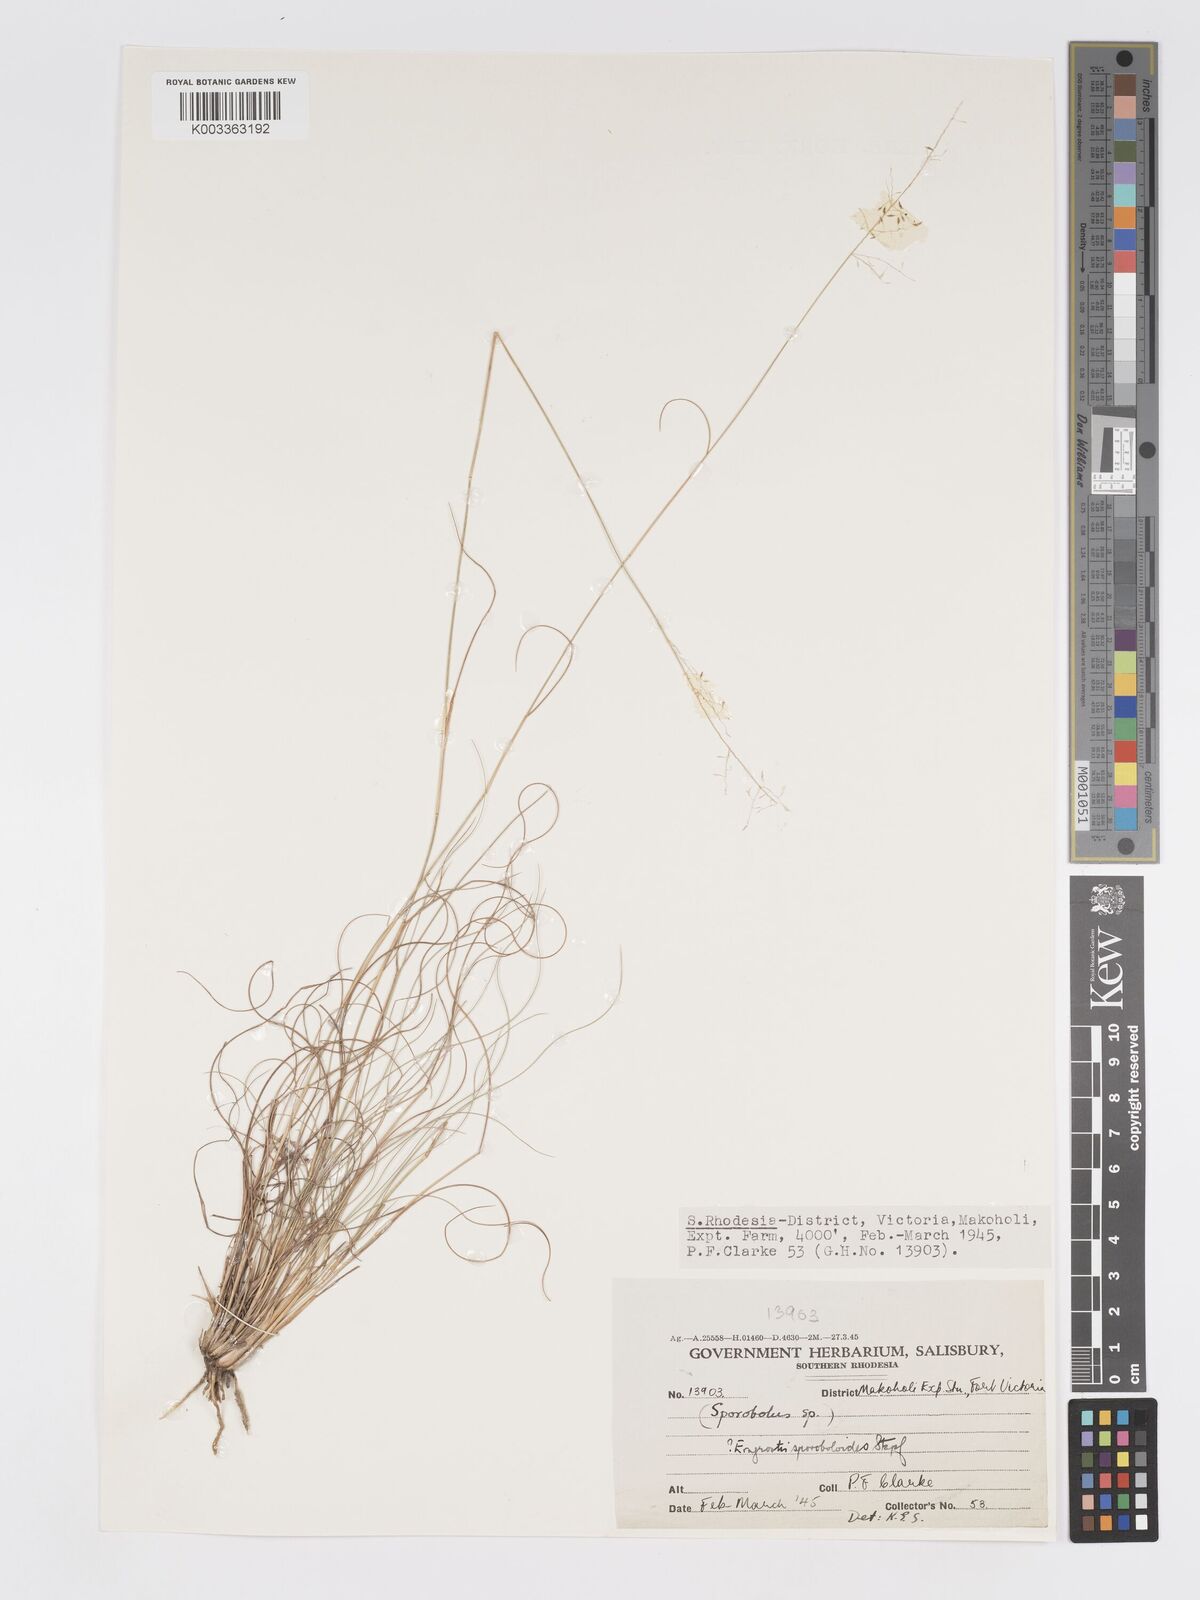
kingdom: Plantae
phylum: Tracheophyta
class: Liliopsida
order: Poales
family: Poaceae
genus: Eragrostis
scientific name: Eragrostis stapfii
